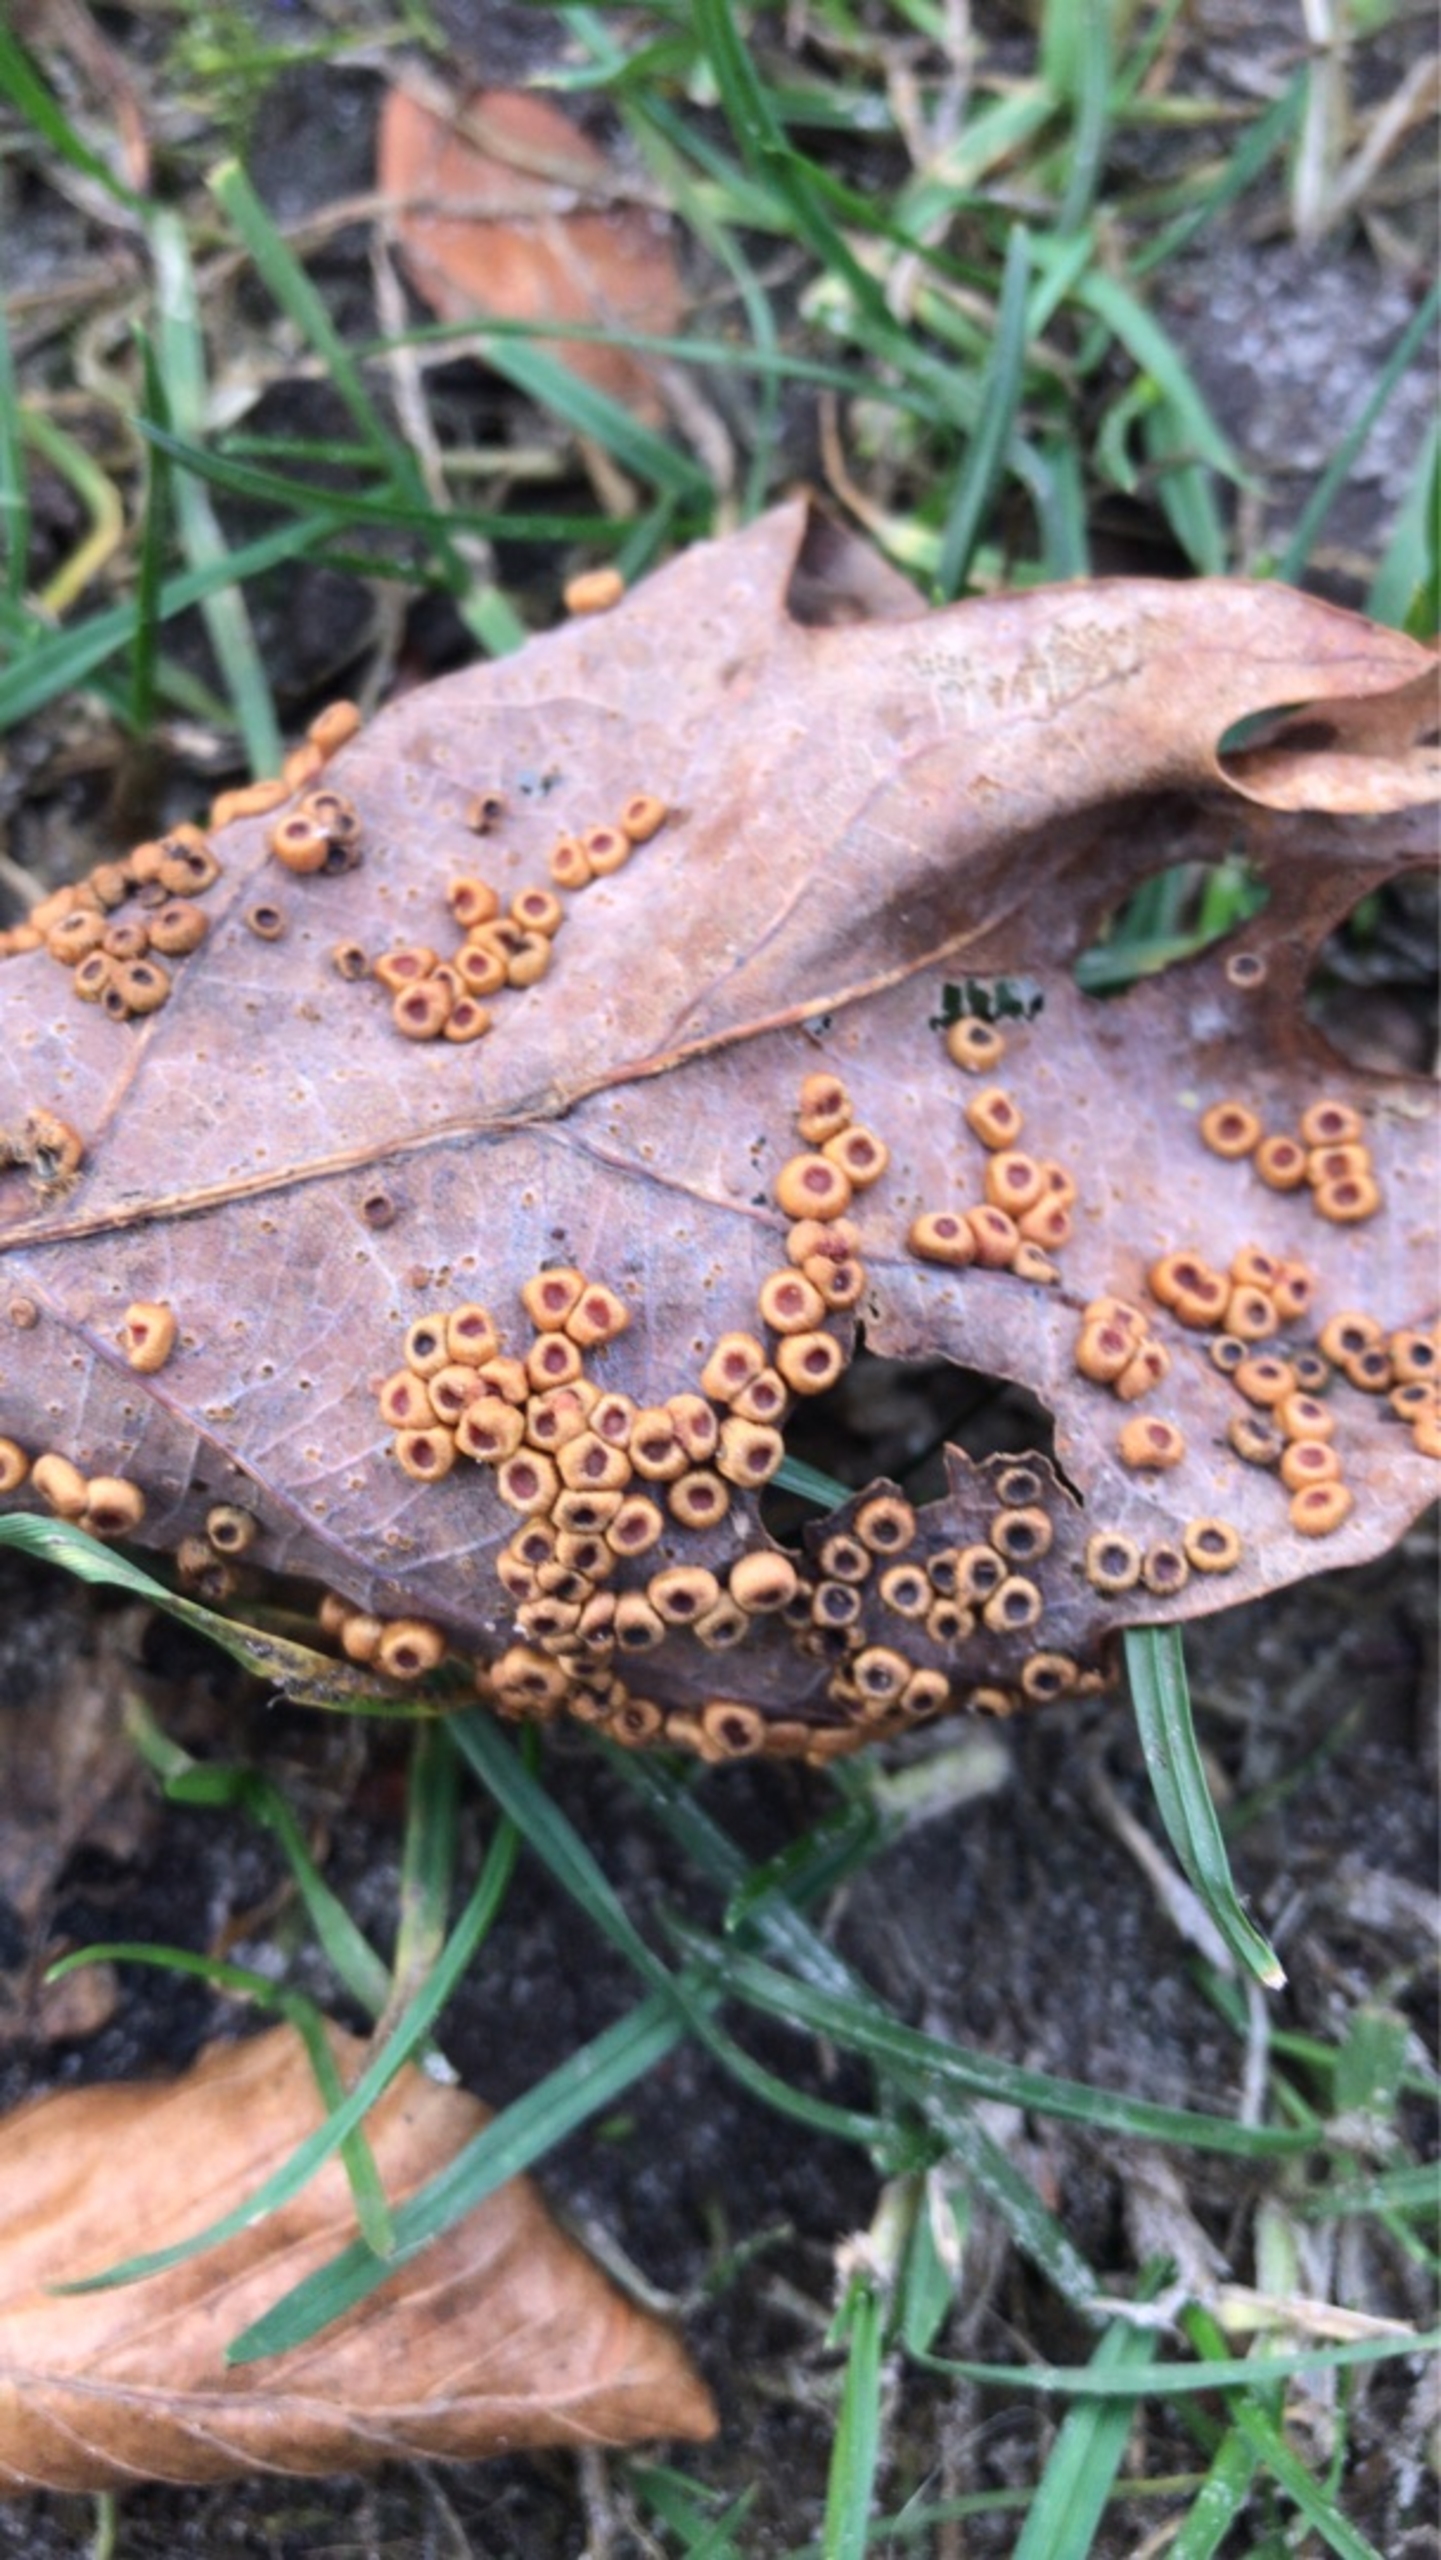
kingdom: Animalia
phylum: Arthropoda
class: Insecta
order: Hymenoptera
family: Cynipidae
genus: Neuroterus
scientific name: Neuroterus numismalis
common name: Knapgalhveps
